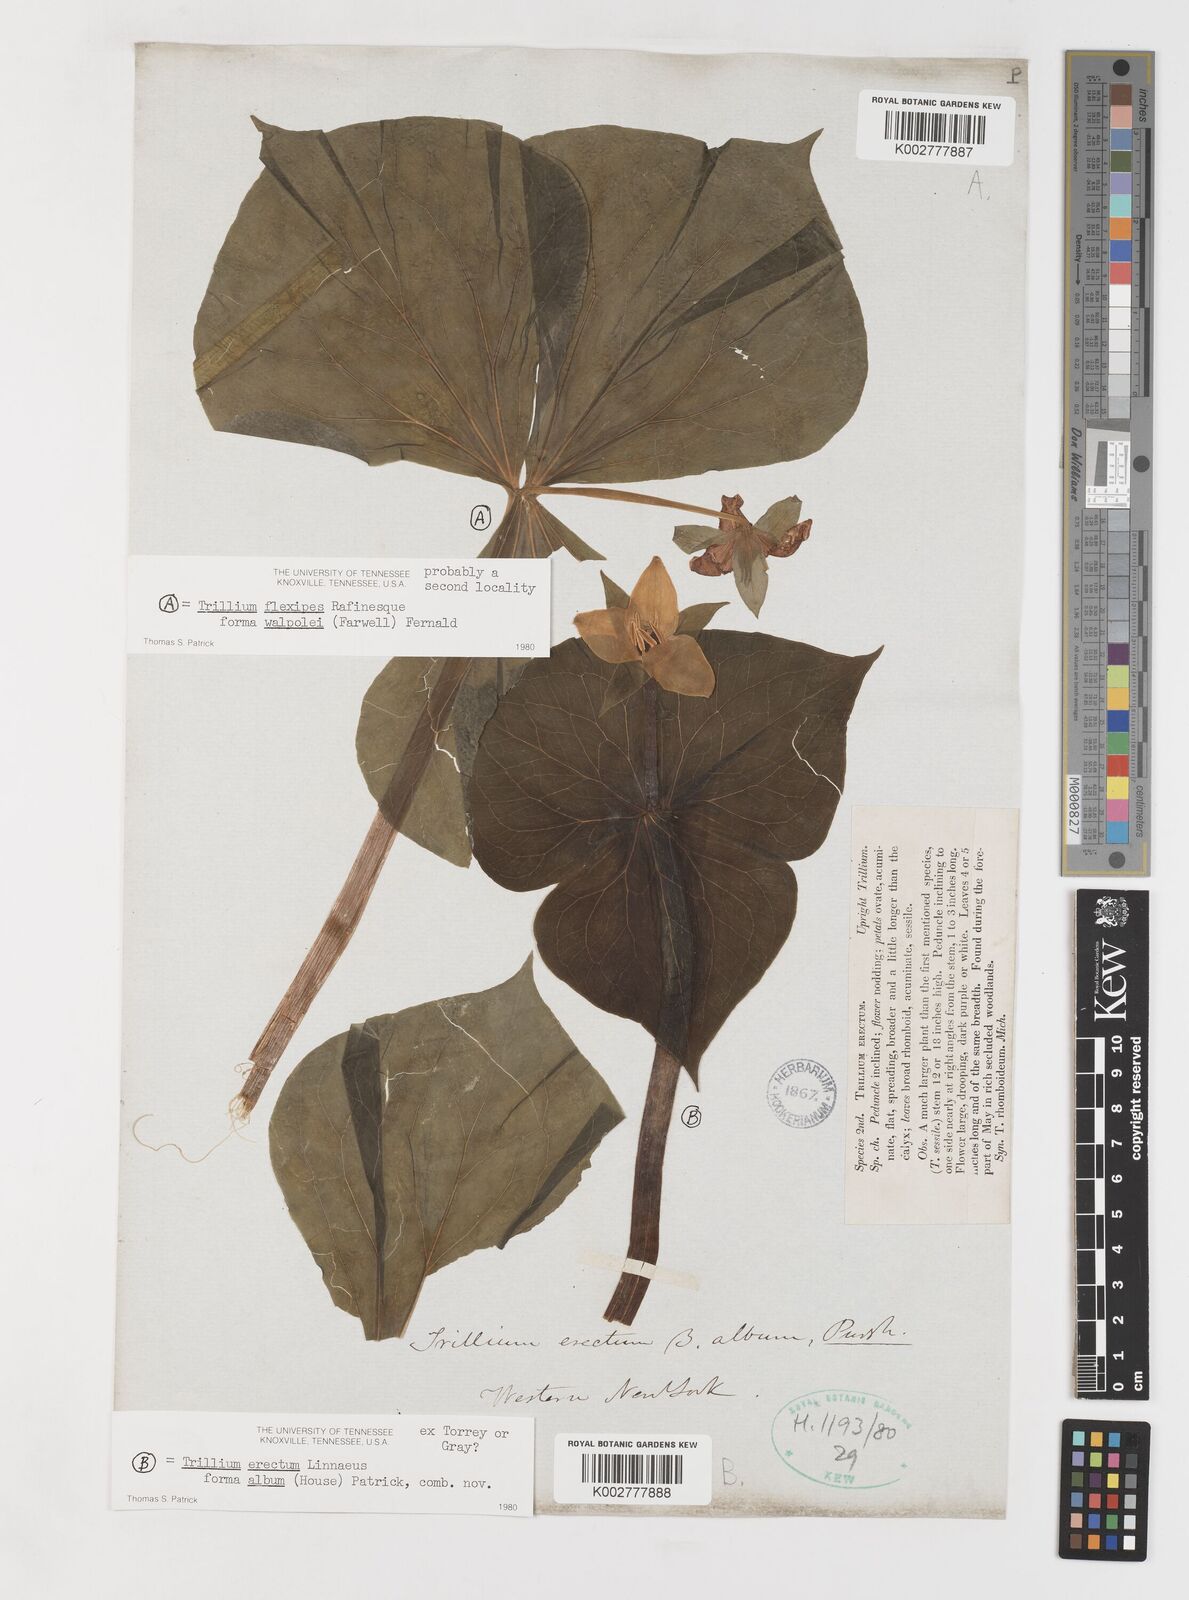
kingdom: Plantae
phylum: Tracheophyta
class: Liliopsida
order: Liliales
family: Melanthiaceae
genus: Trillium
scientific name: Trillium flexipes
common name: Drooping trillium
